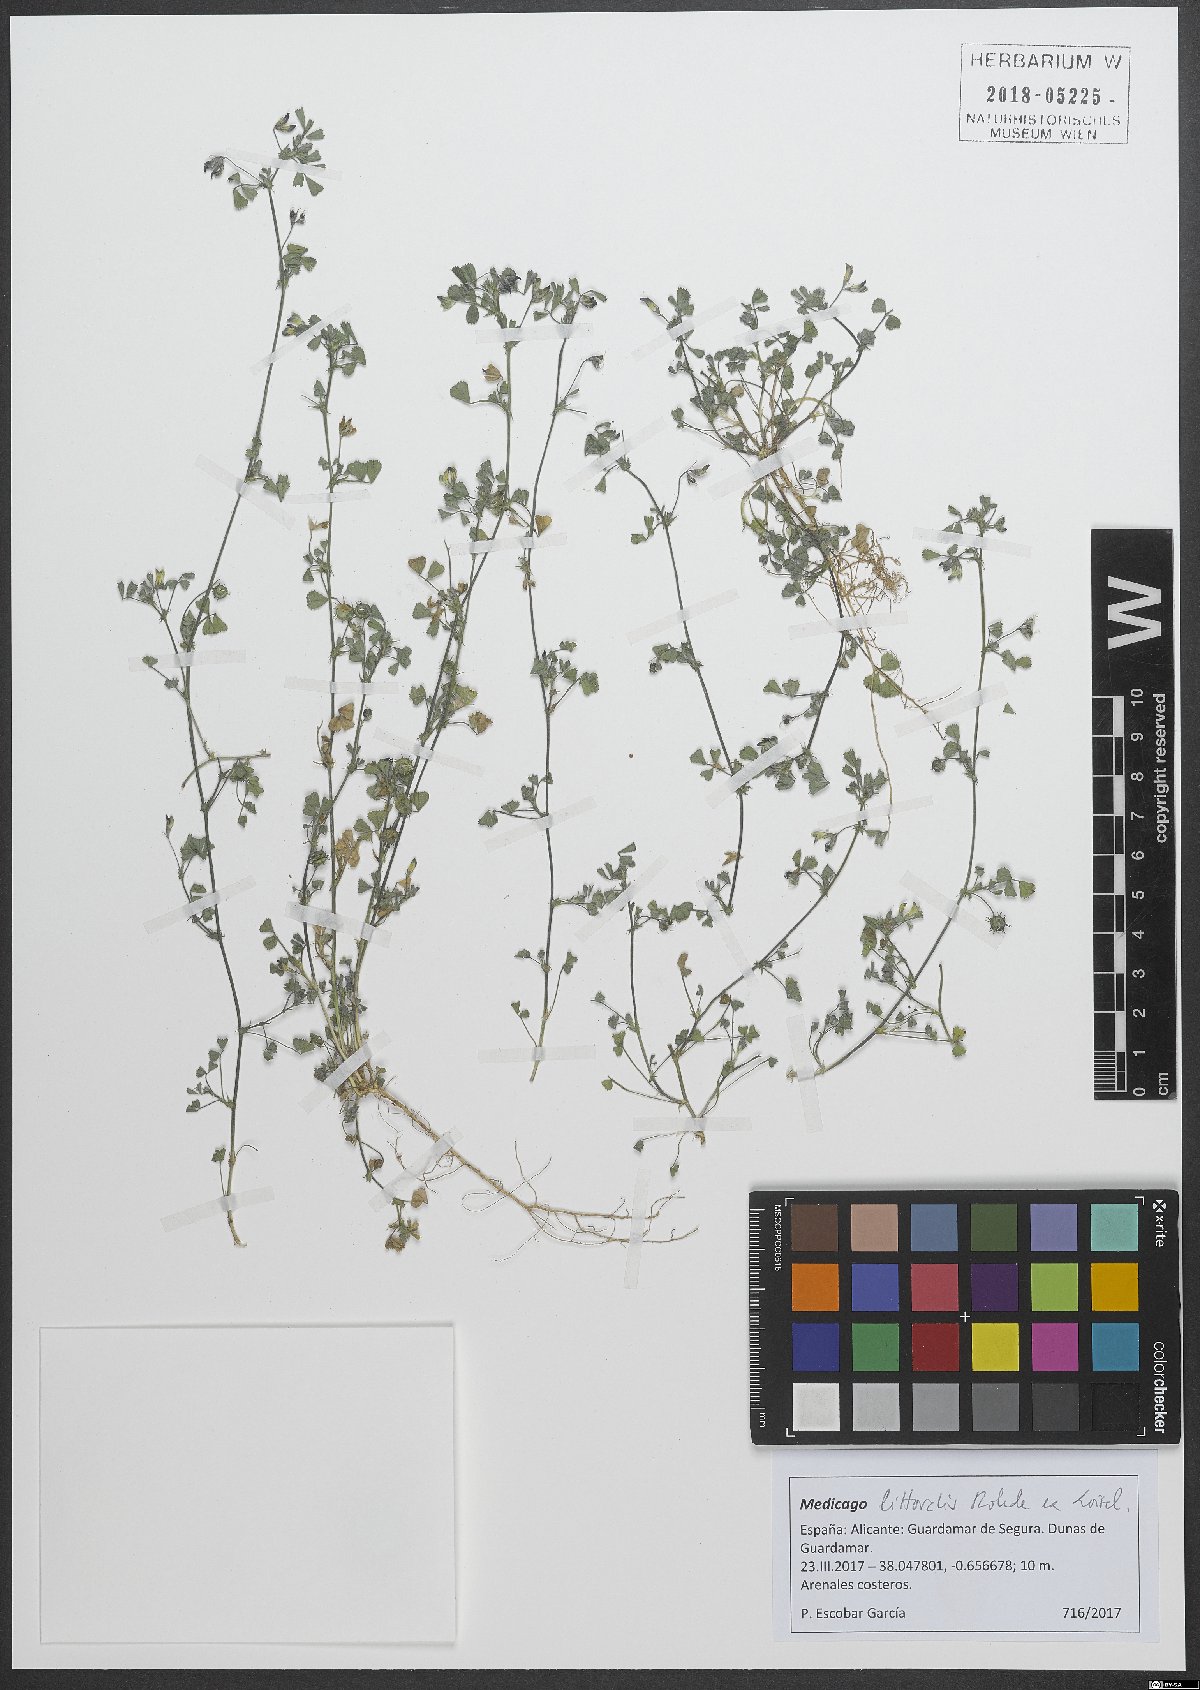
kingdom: Plantae
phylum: Tracheophyta
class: Magnoliopsida
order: Fabales
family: Fabaceae
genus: Medicago
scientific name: Medicago littoralis
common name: Shore medick
